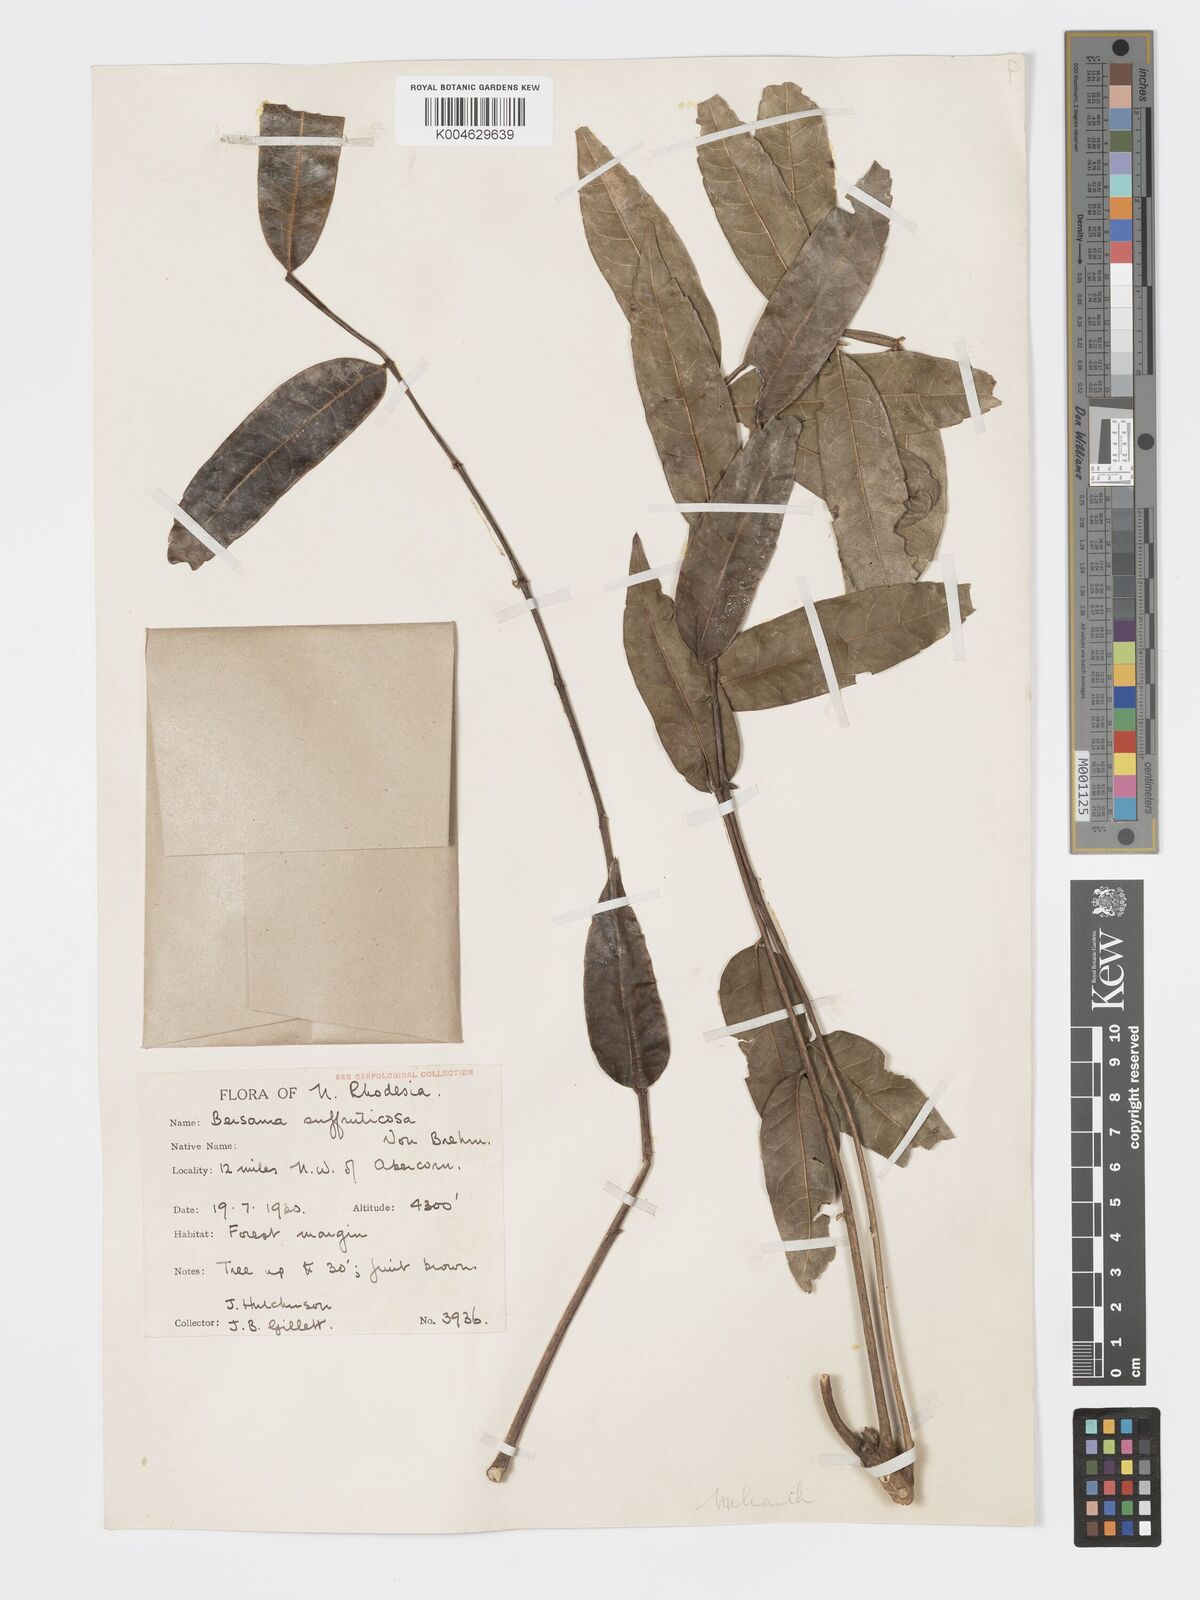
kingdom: Plantae
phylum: Tracheophyta
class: Magnoliopsida
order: Geraniales
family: Melianthaceae
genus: Bersama
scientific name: Bersama
